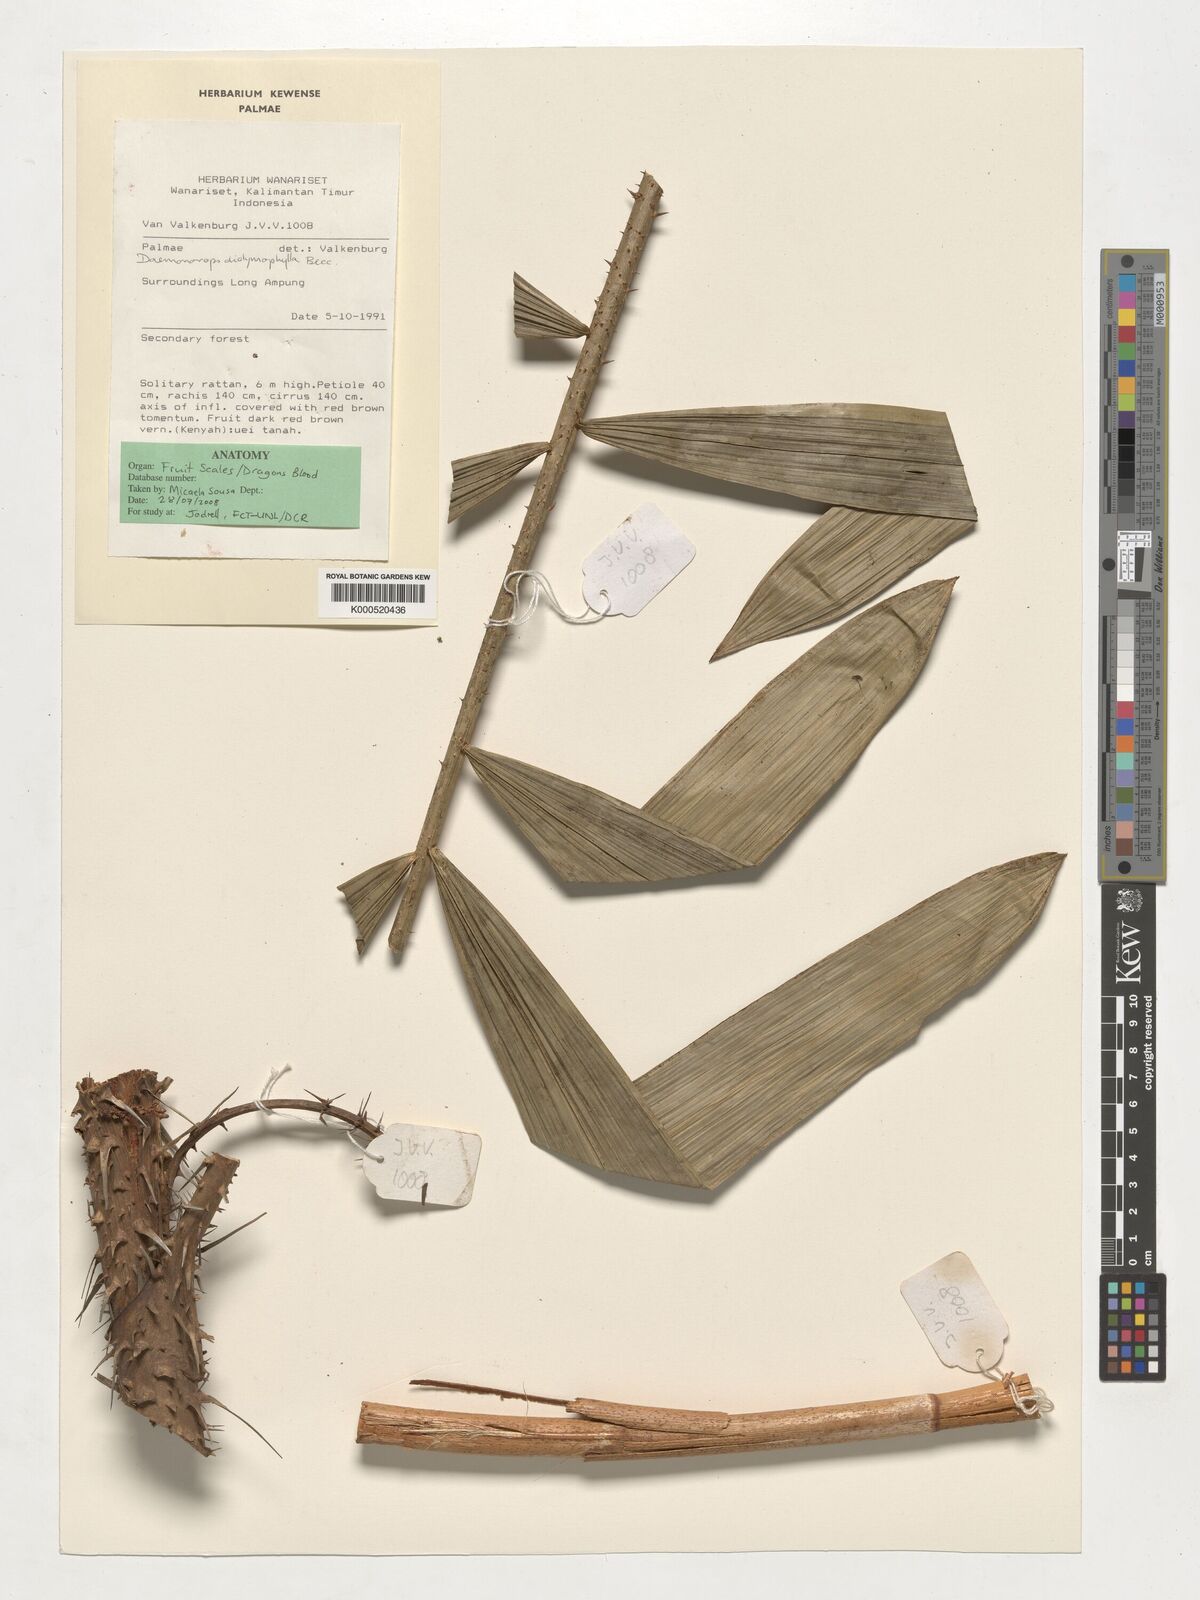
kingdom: Plantae
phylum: Tracheophyta
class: Liliopsida
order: Arecales
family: Arecaceae
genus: Calamus
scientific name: Calamus gracilipes
